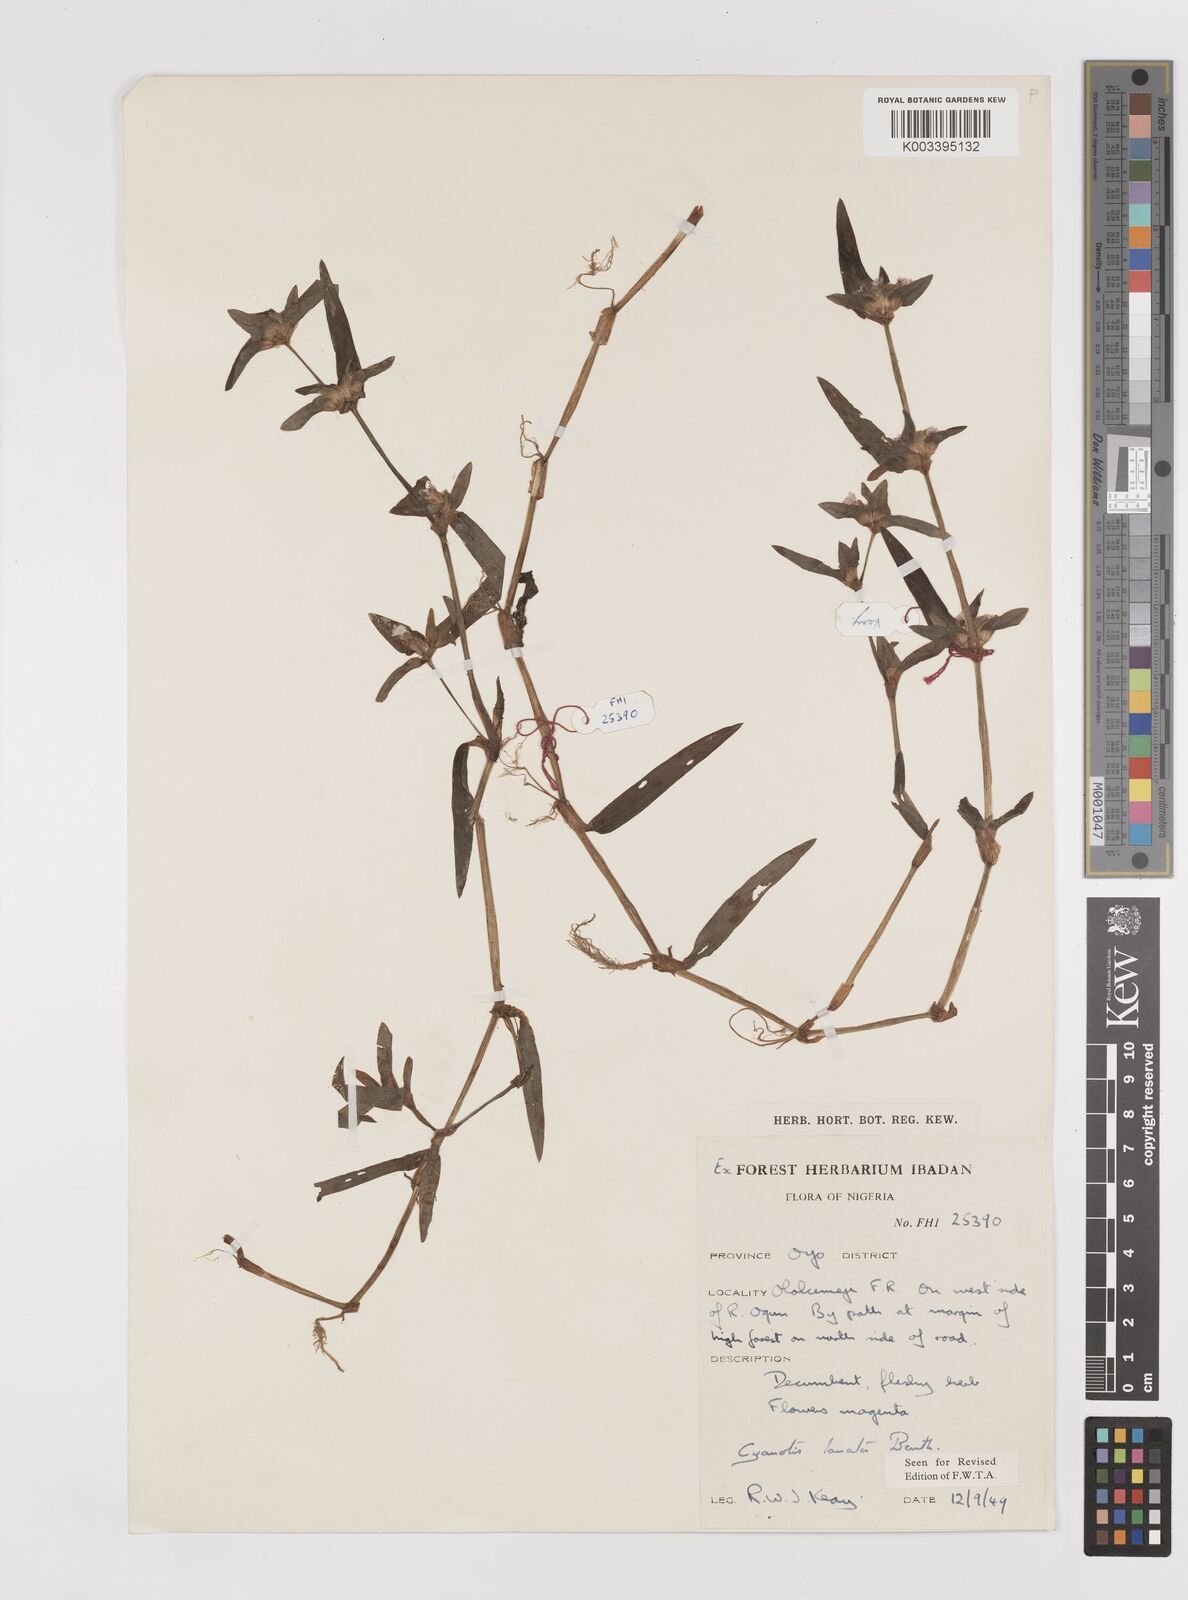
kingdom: Plantae
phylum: Tracheophyta
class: Liliopsida
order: Commelinales
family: Commelinaceae
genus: Cyanotis
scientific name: Cyanotis lanata
